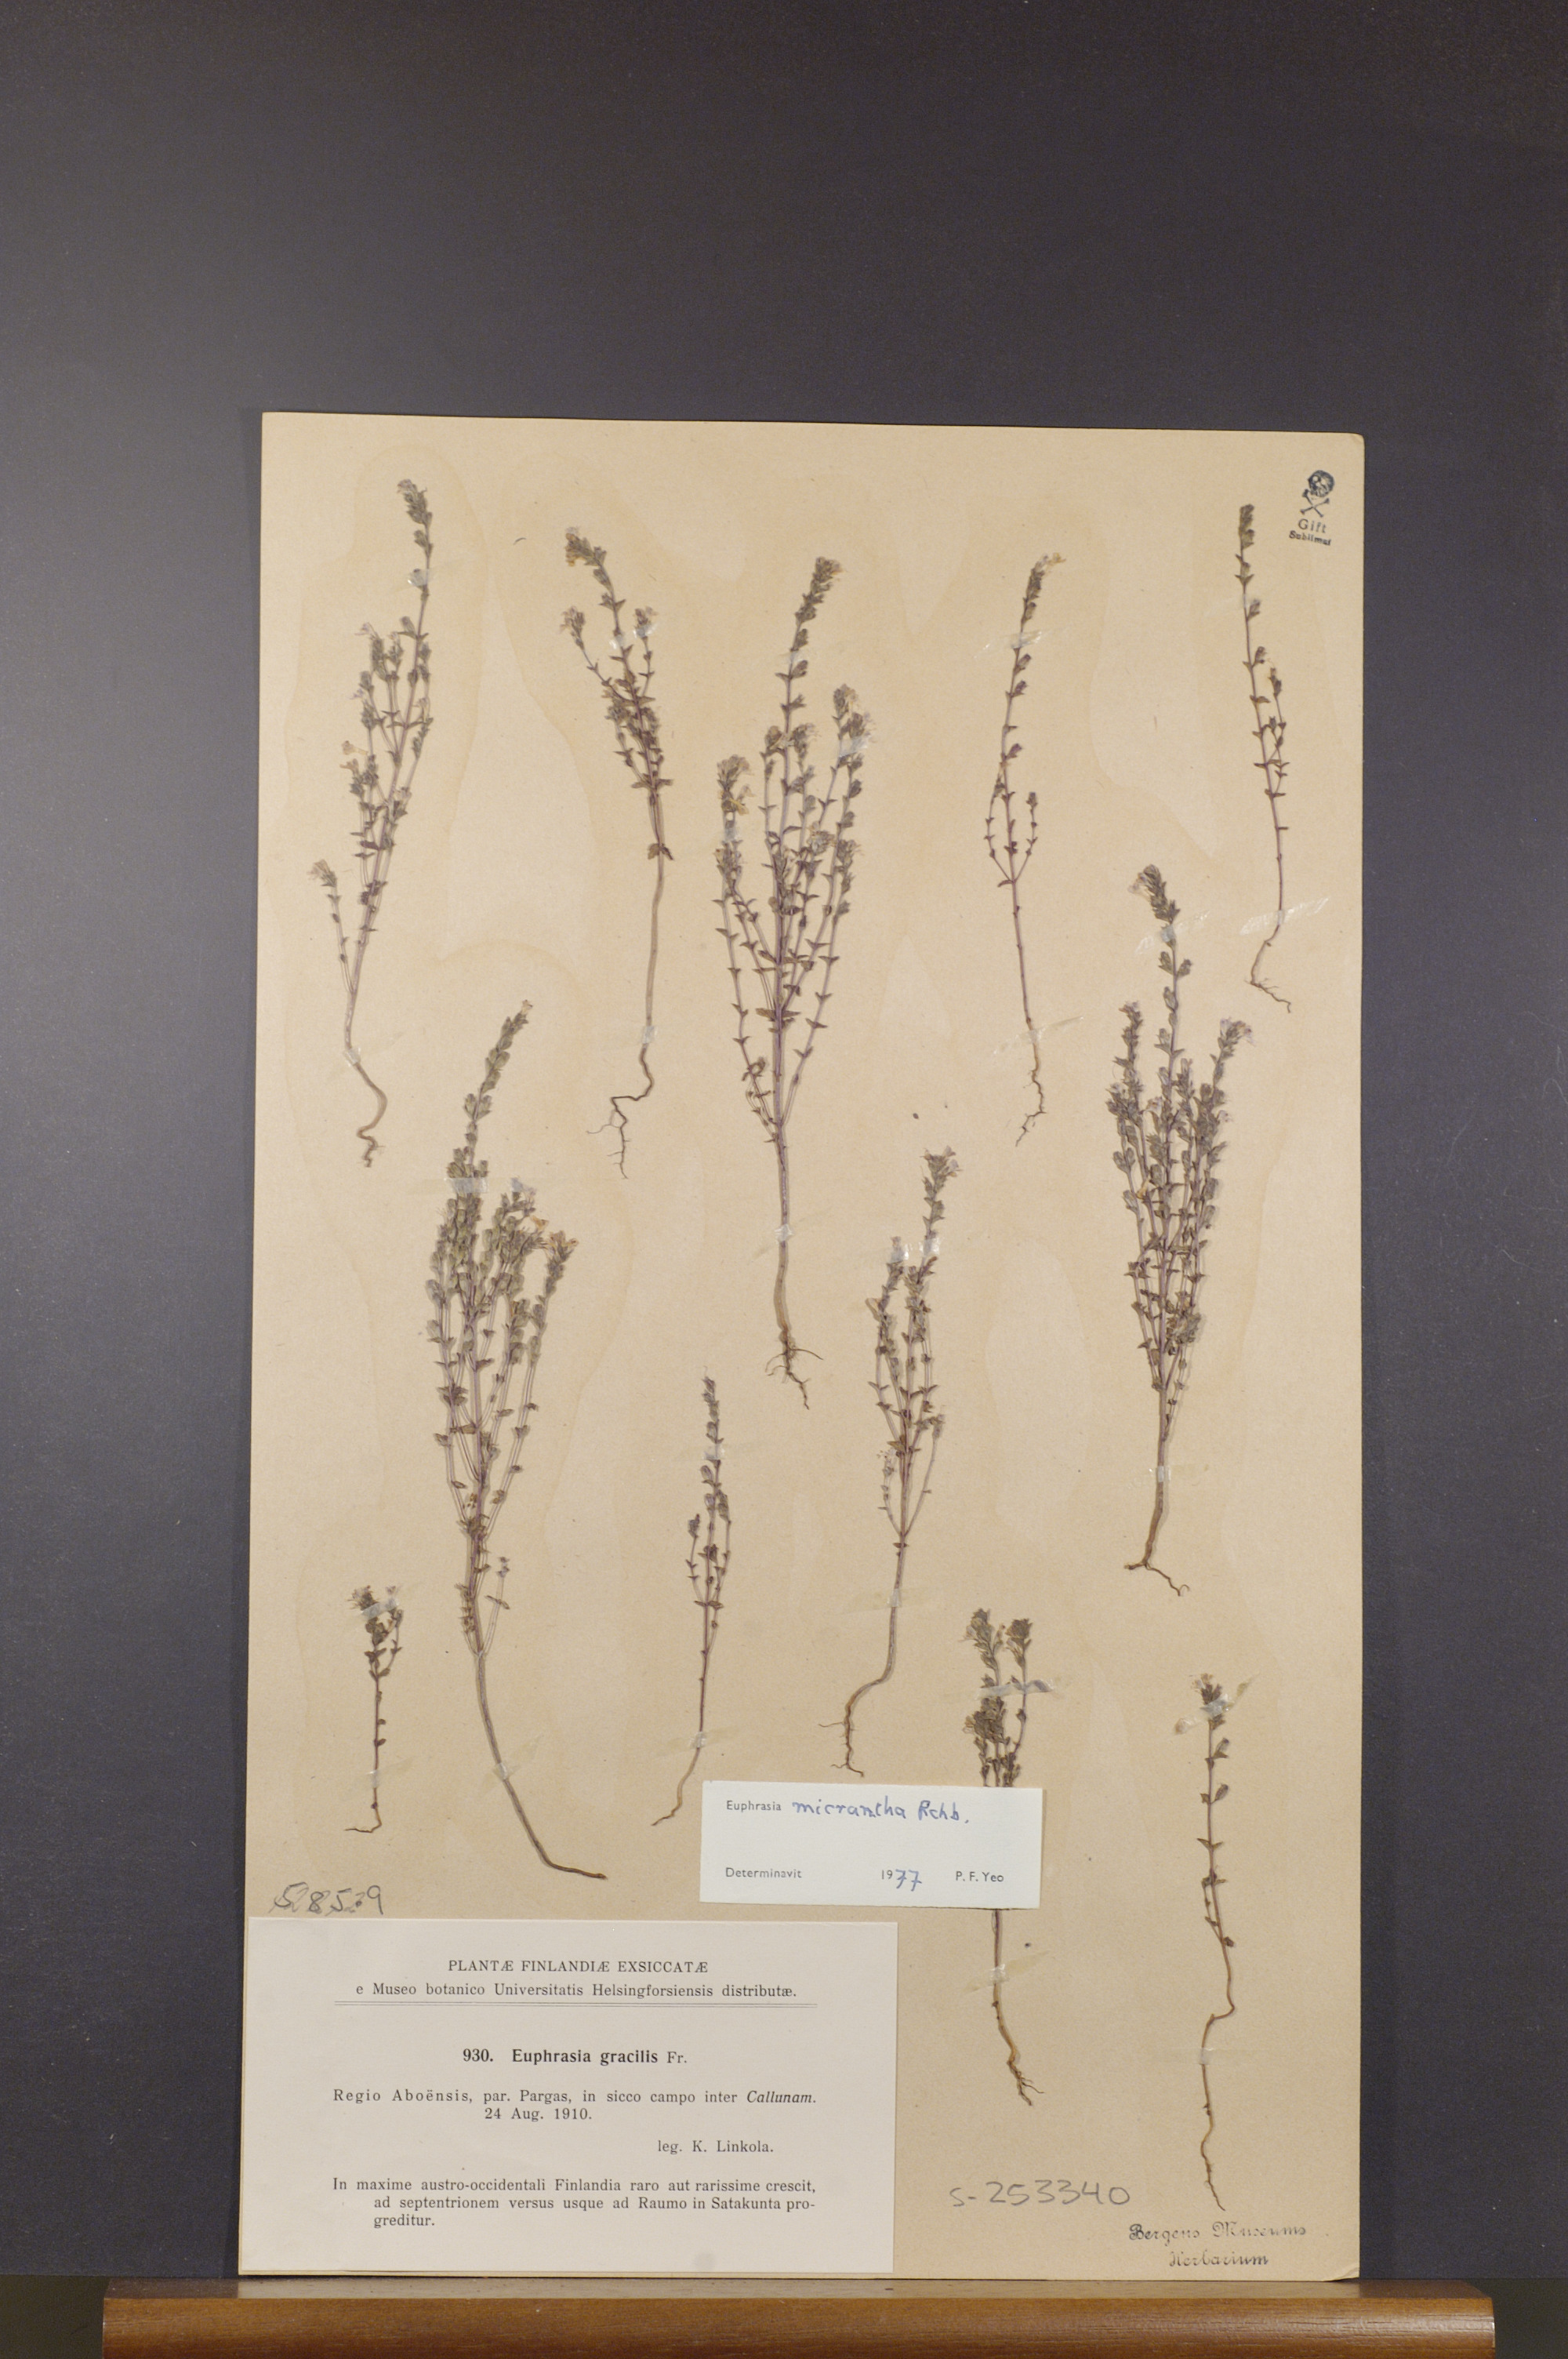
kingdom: Plantae
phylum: Tracheophyta
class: Magnoliopsida
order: Lamiales
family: Orobanchaceae
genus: Euphrasia
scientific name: Euphrasia micrantha
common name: Northern eyebright
